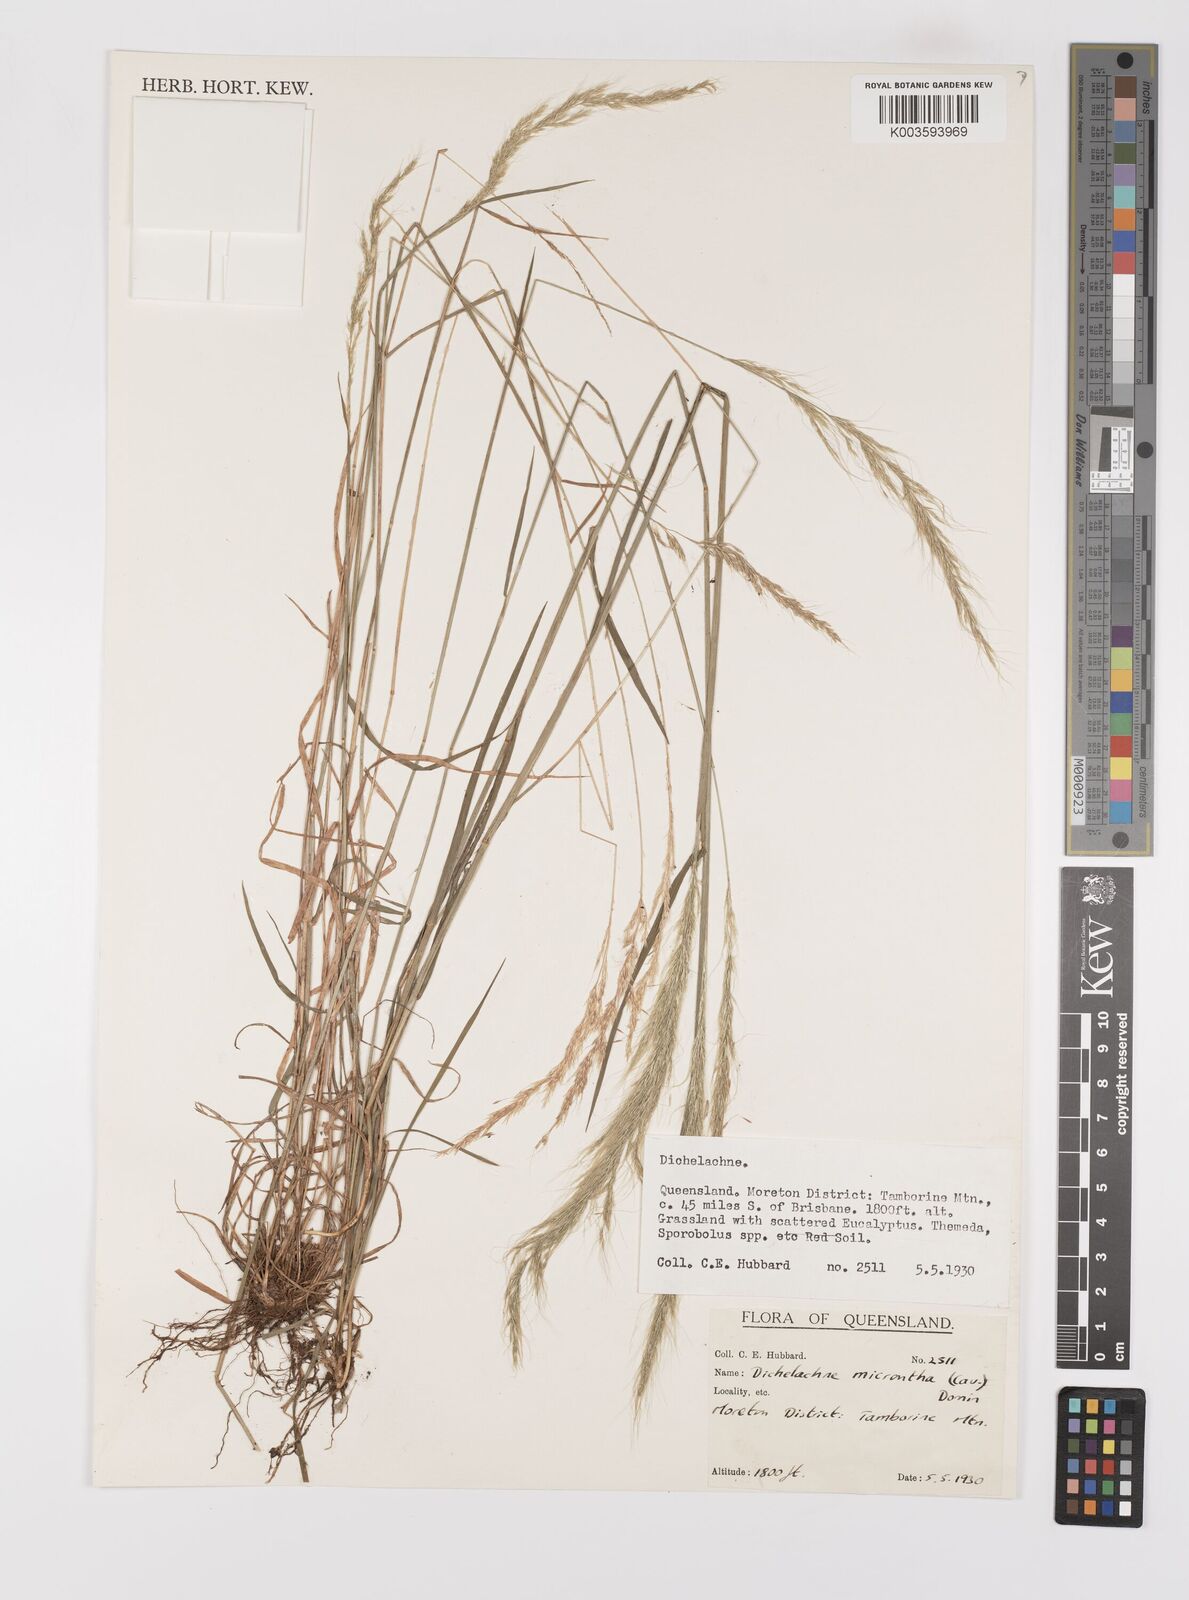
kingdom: Plantae
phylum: Tracheophyta
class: Liliopsida
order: Poales
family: Poaceae
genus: Dichelachne
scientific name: Dichelachne micrantha
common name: Plumegrass
